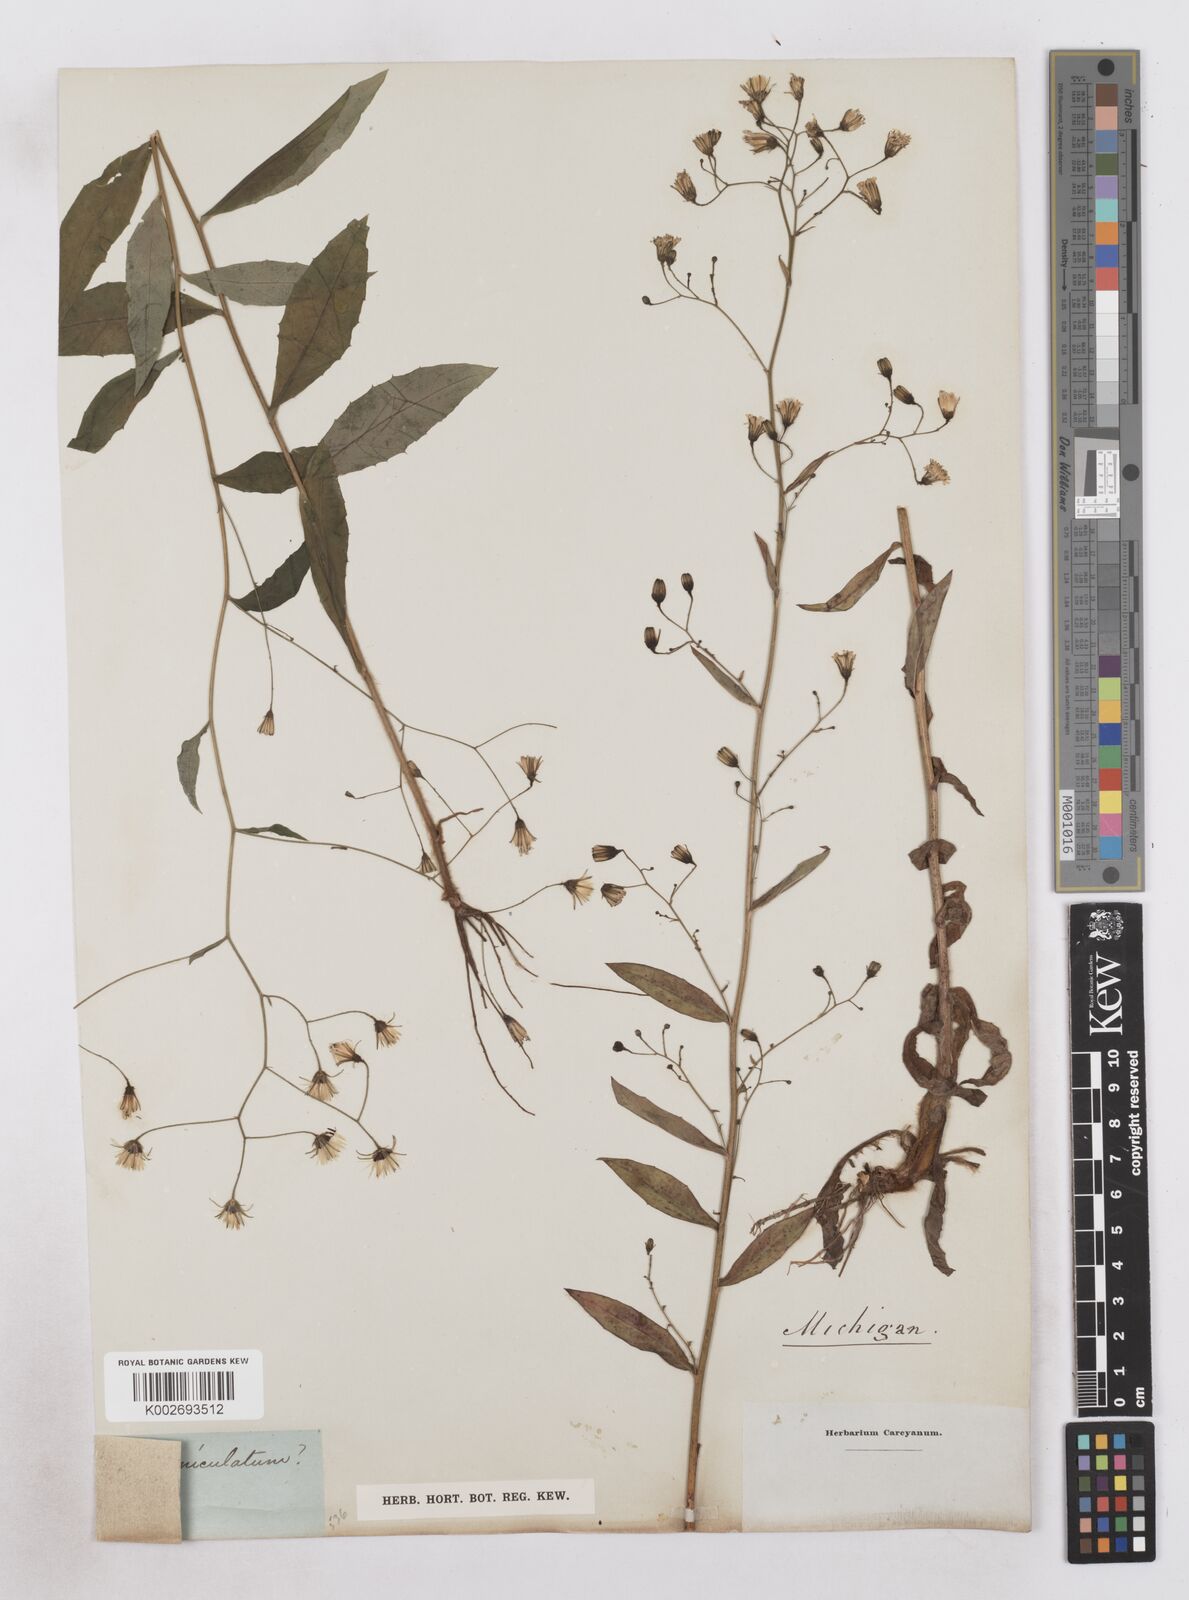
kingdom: Plantae
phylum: Tracheophyta
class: Magnoliopsida
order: Asterales
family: Asteraceae
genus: Hieracium
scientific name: Hieracium paniculatum
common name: Allegheny hawkweed
